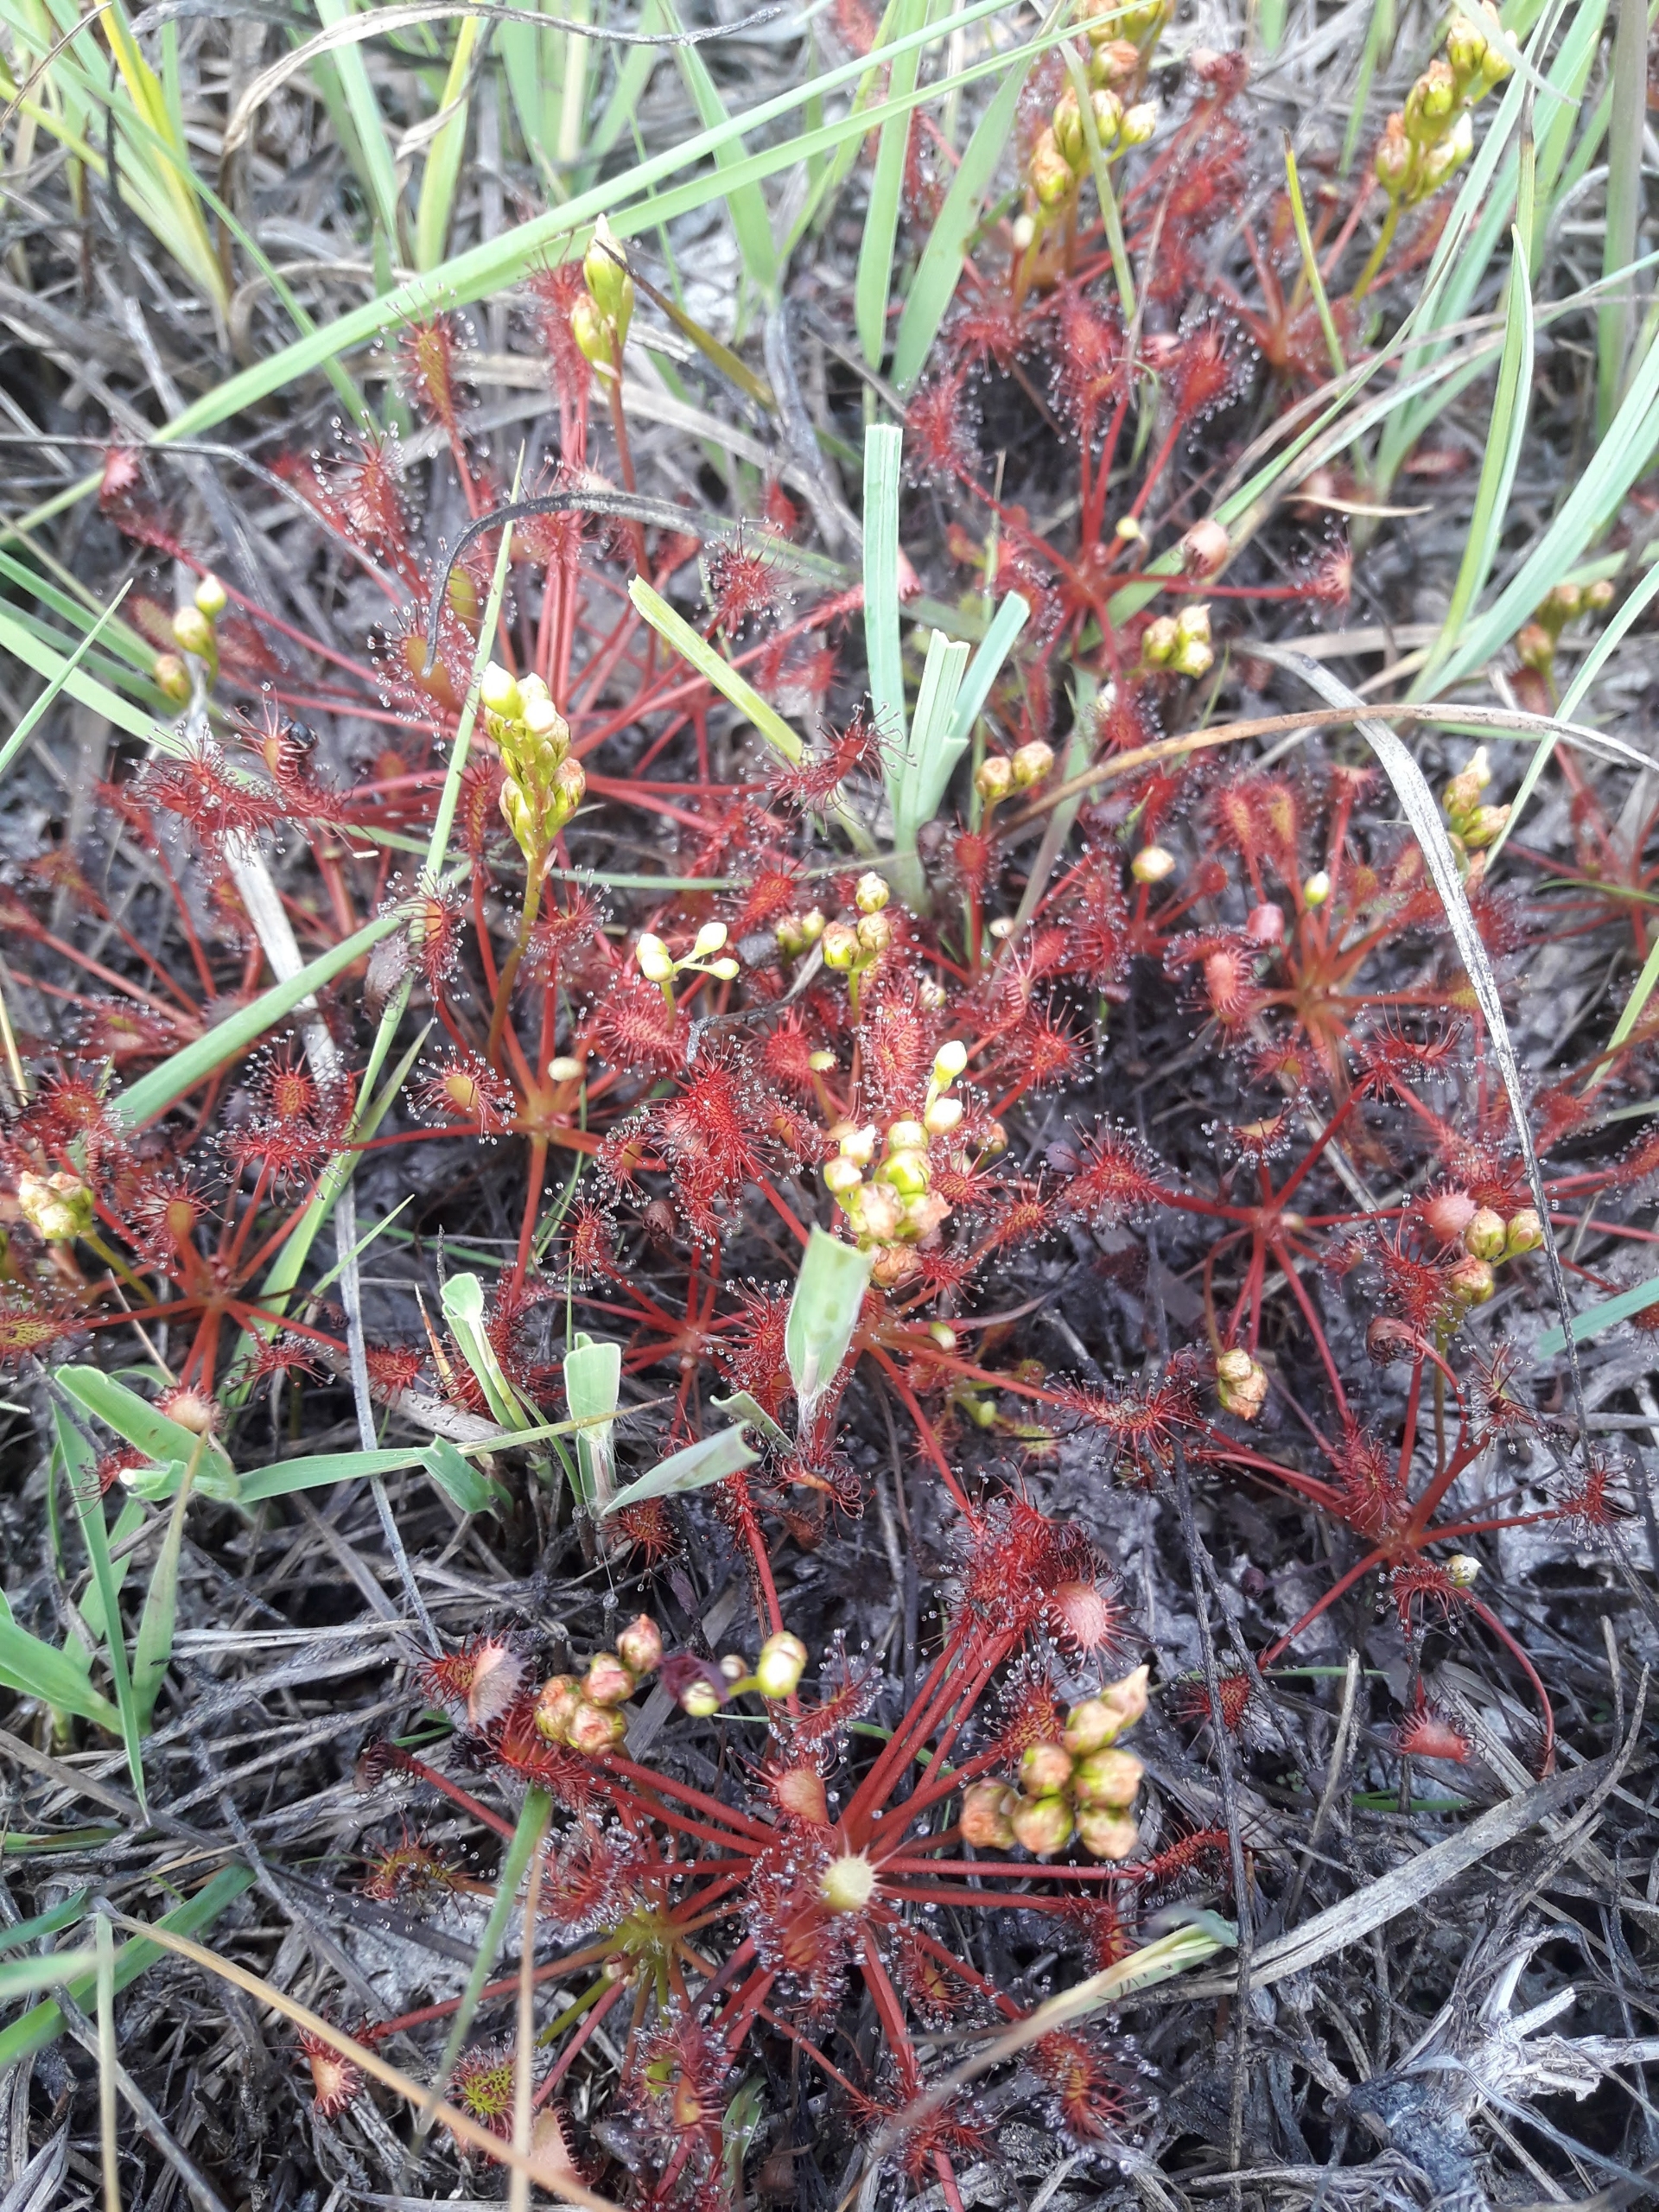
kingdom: Plantae
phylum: Tracheophyta
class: Magnoliopsida
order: Caryophyllales
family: Droseraceae
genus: Drosera
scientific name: Drosera intermedia
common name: Liden soldug
